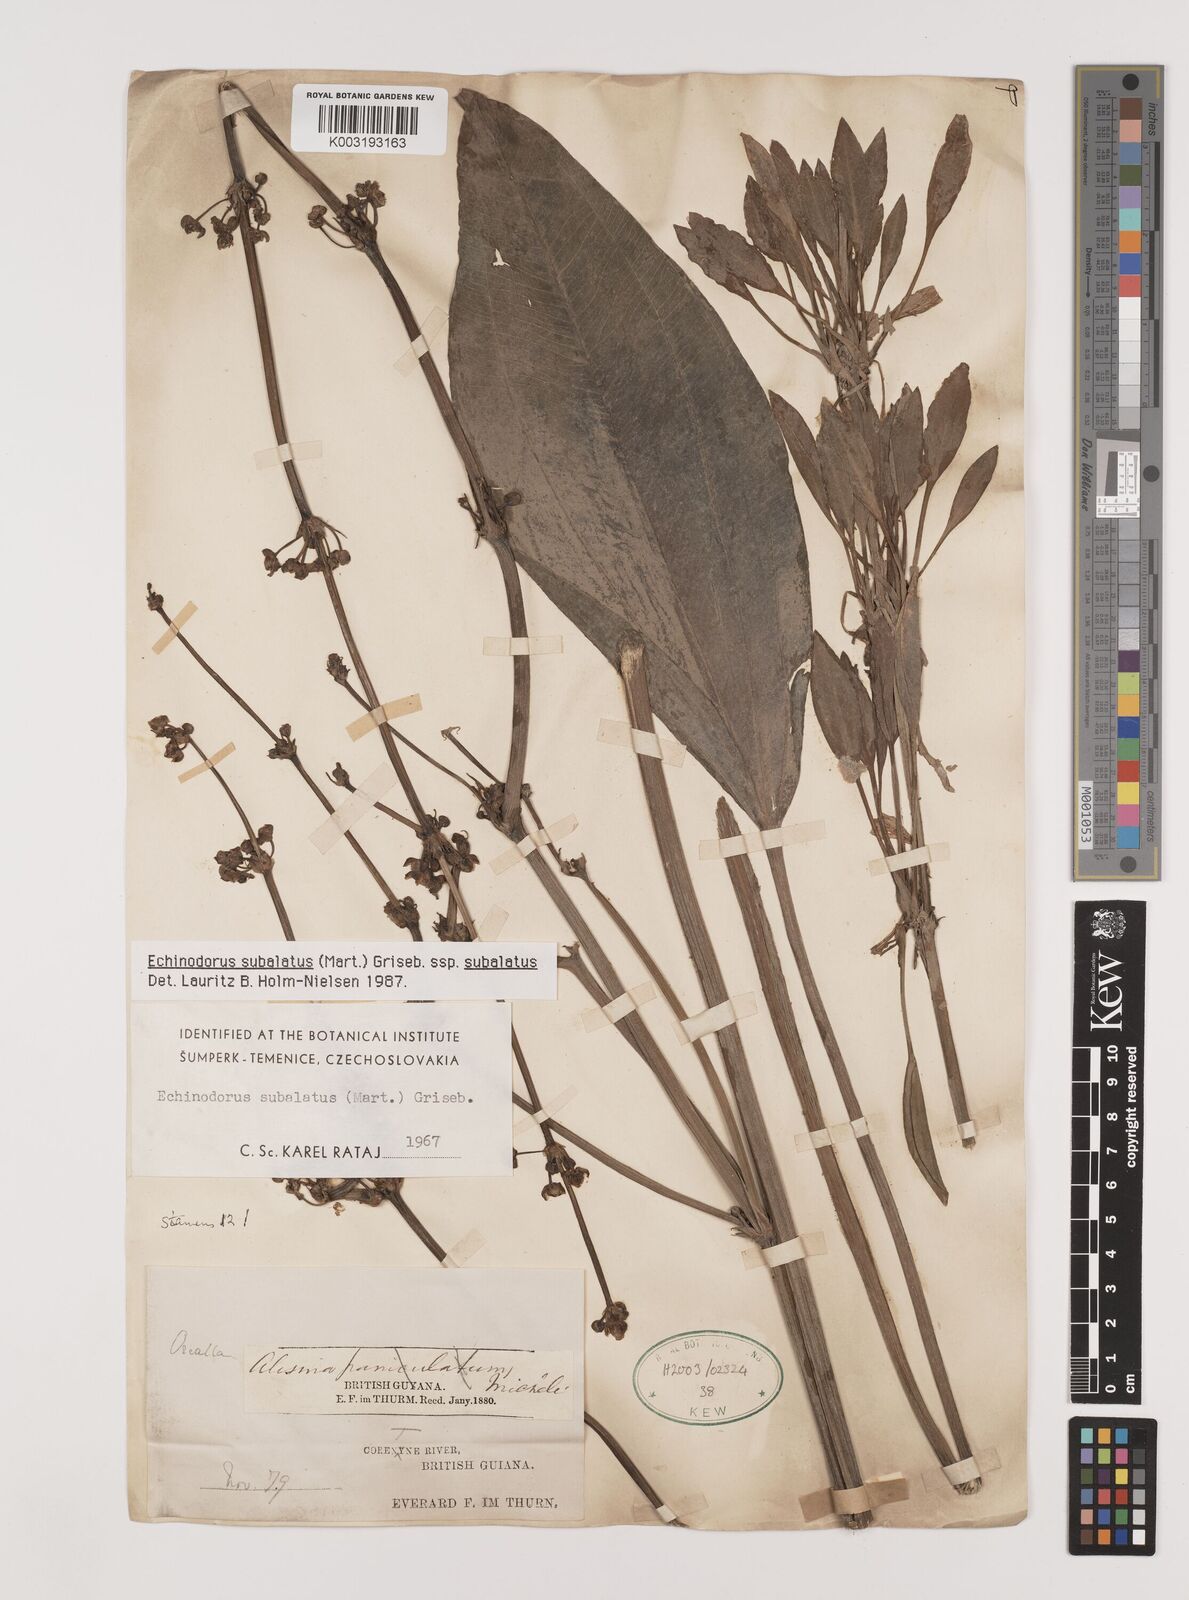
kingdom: Plantae
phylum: Tracheophyta
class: Liliopsida
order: Alismatales
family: Alismataceae
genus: Echinodorus
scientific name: Echinodorus
